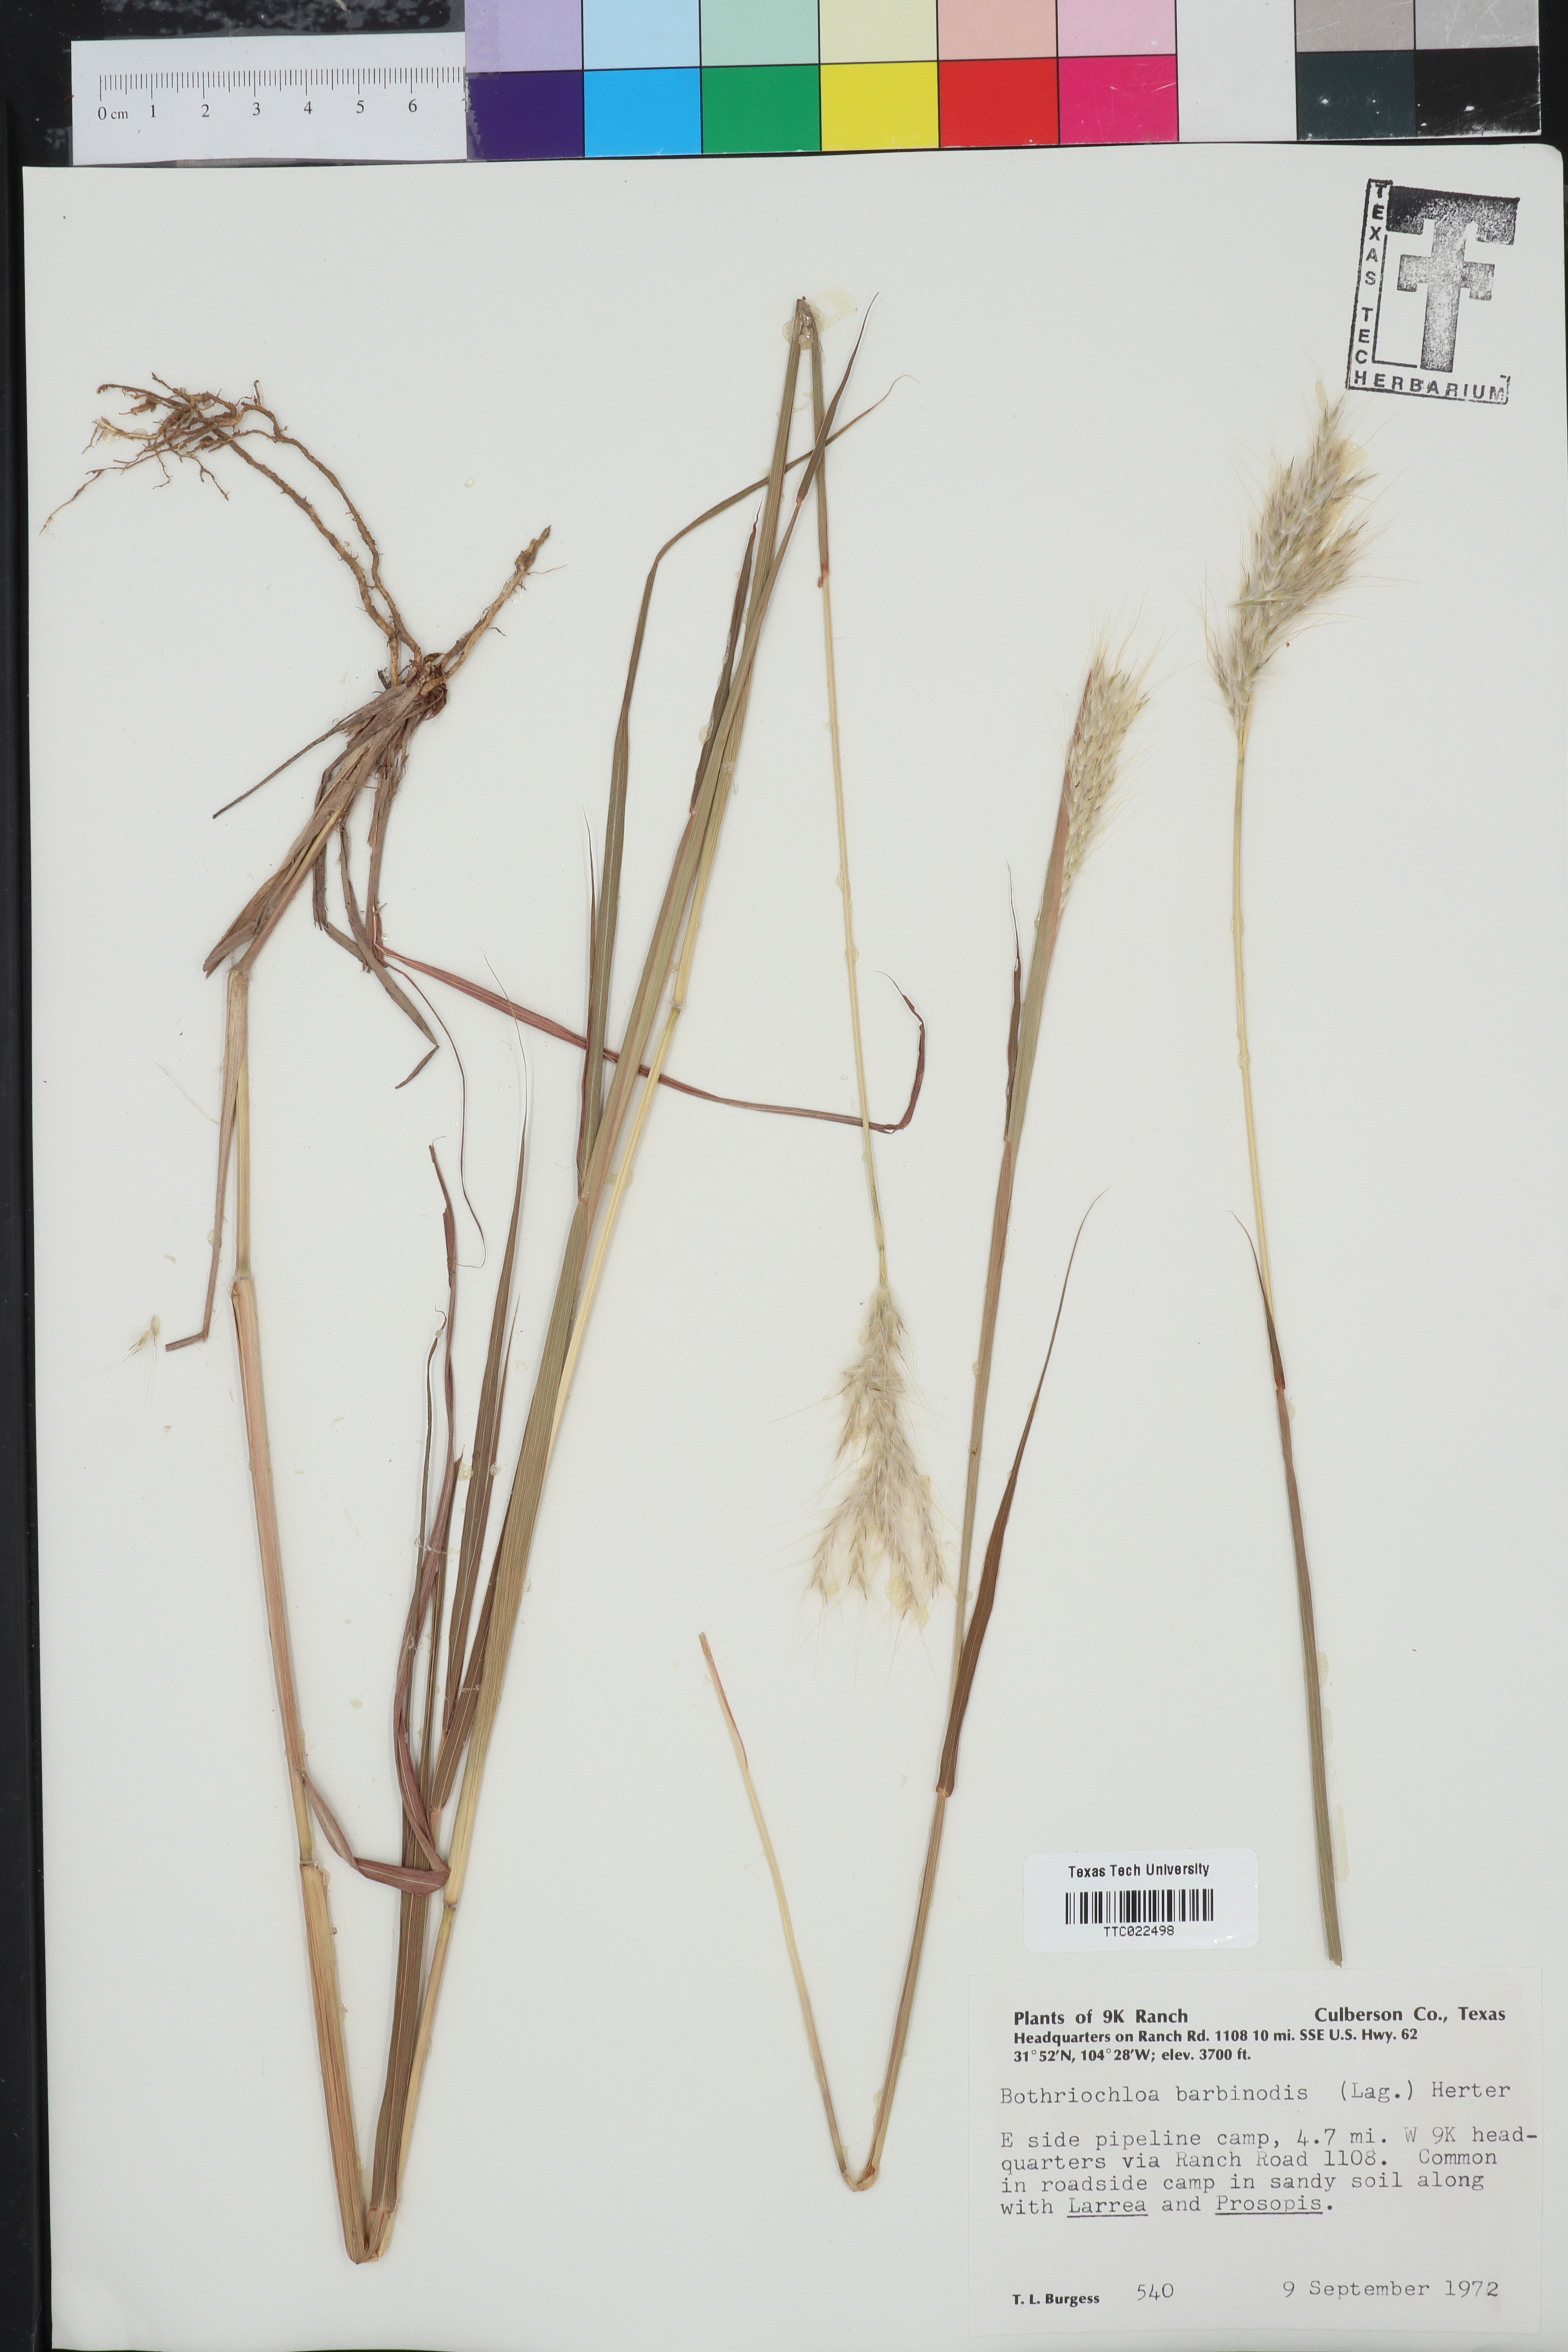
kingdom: Plantae
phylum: Tracheophyta
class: Liliopsida
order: Poales
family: Poaceae
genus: Bothriochloa
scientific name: Bothriochloa barbinodis
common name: Cane bluestem
